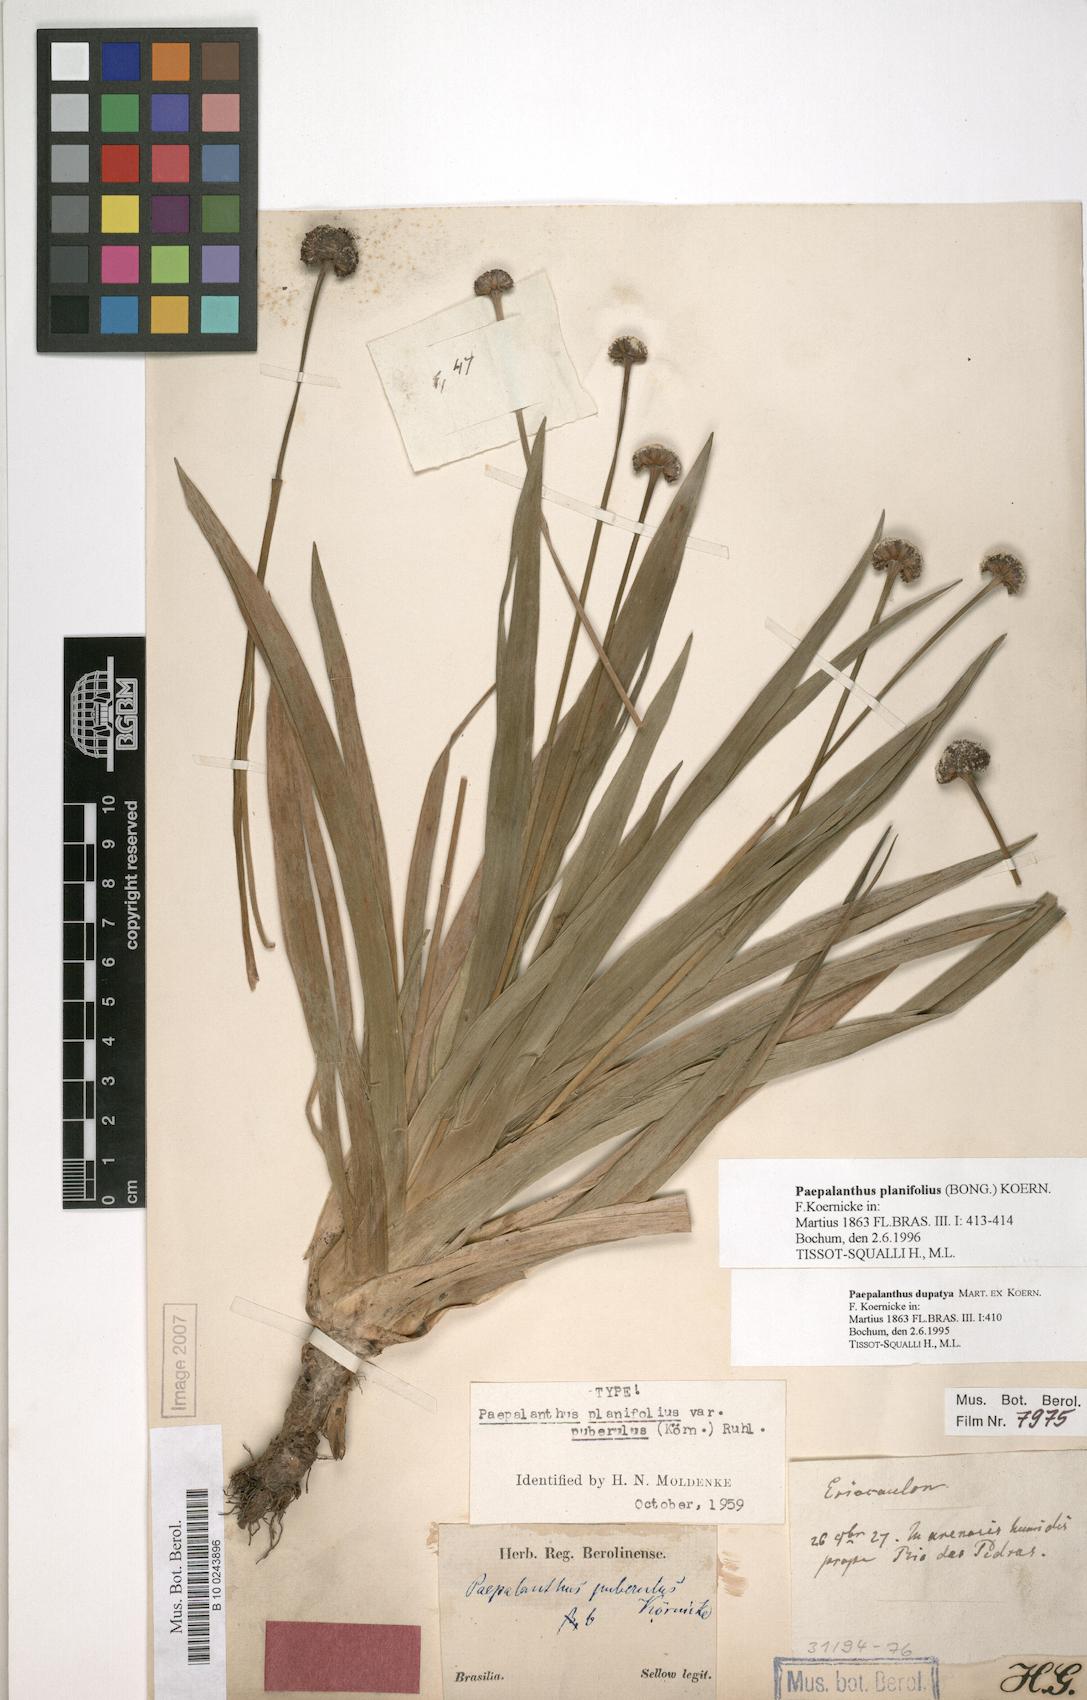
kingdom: Plantae
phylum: Tracheophyta
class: Liliopsida
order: Poales
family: Eriocaulaceae
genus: Paepalanthus
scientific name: Paepalanthus planifolius
